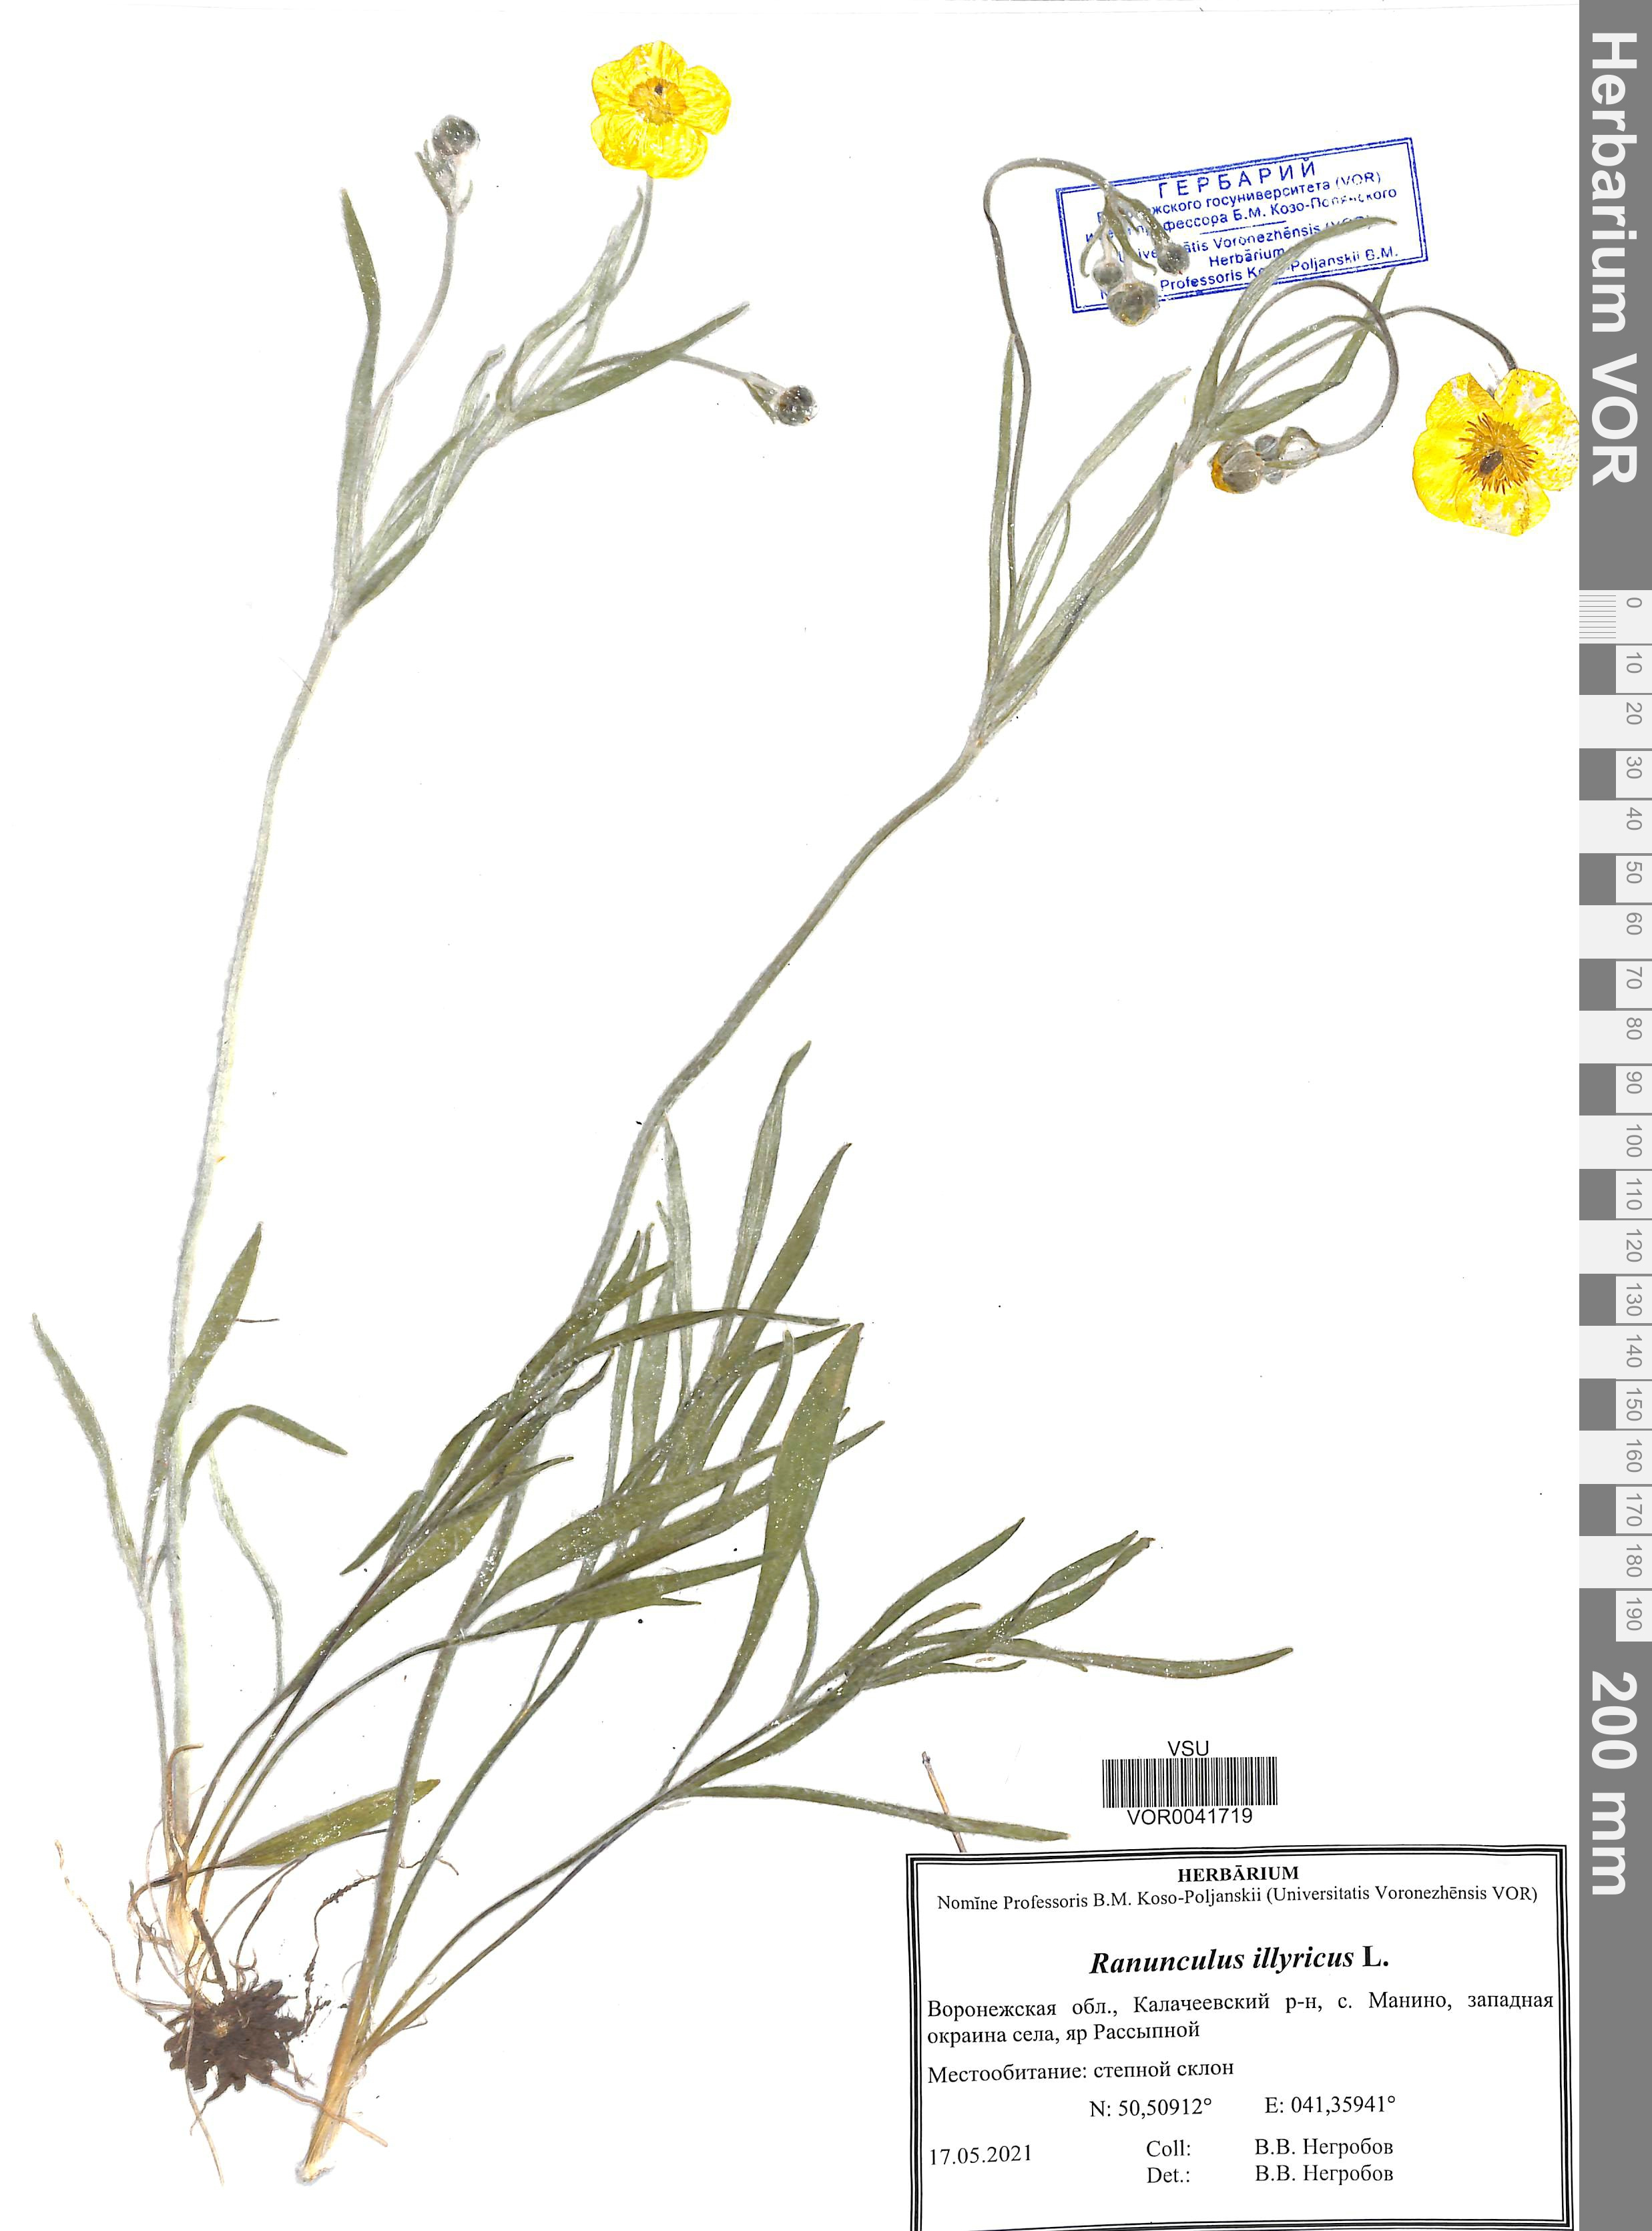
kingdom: Plantae
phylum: Tracheophyta
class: Magnoliopsida
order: Ranunculales
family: Ranunculaceae
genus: Ranunculus
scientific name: Ranunculus illyricus
